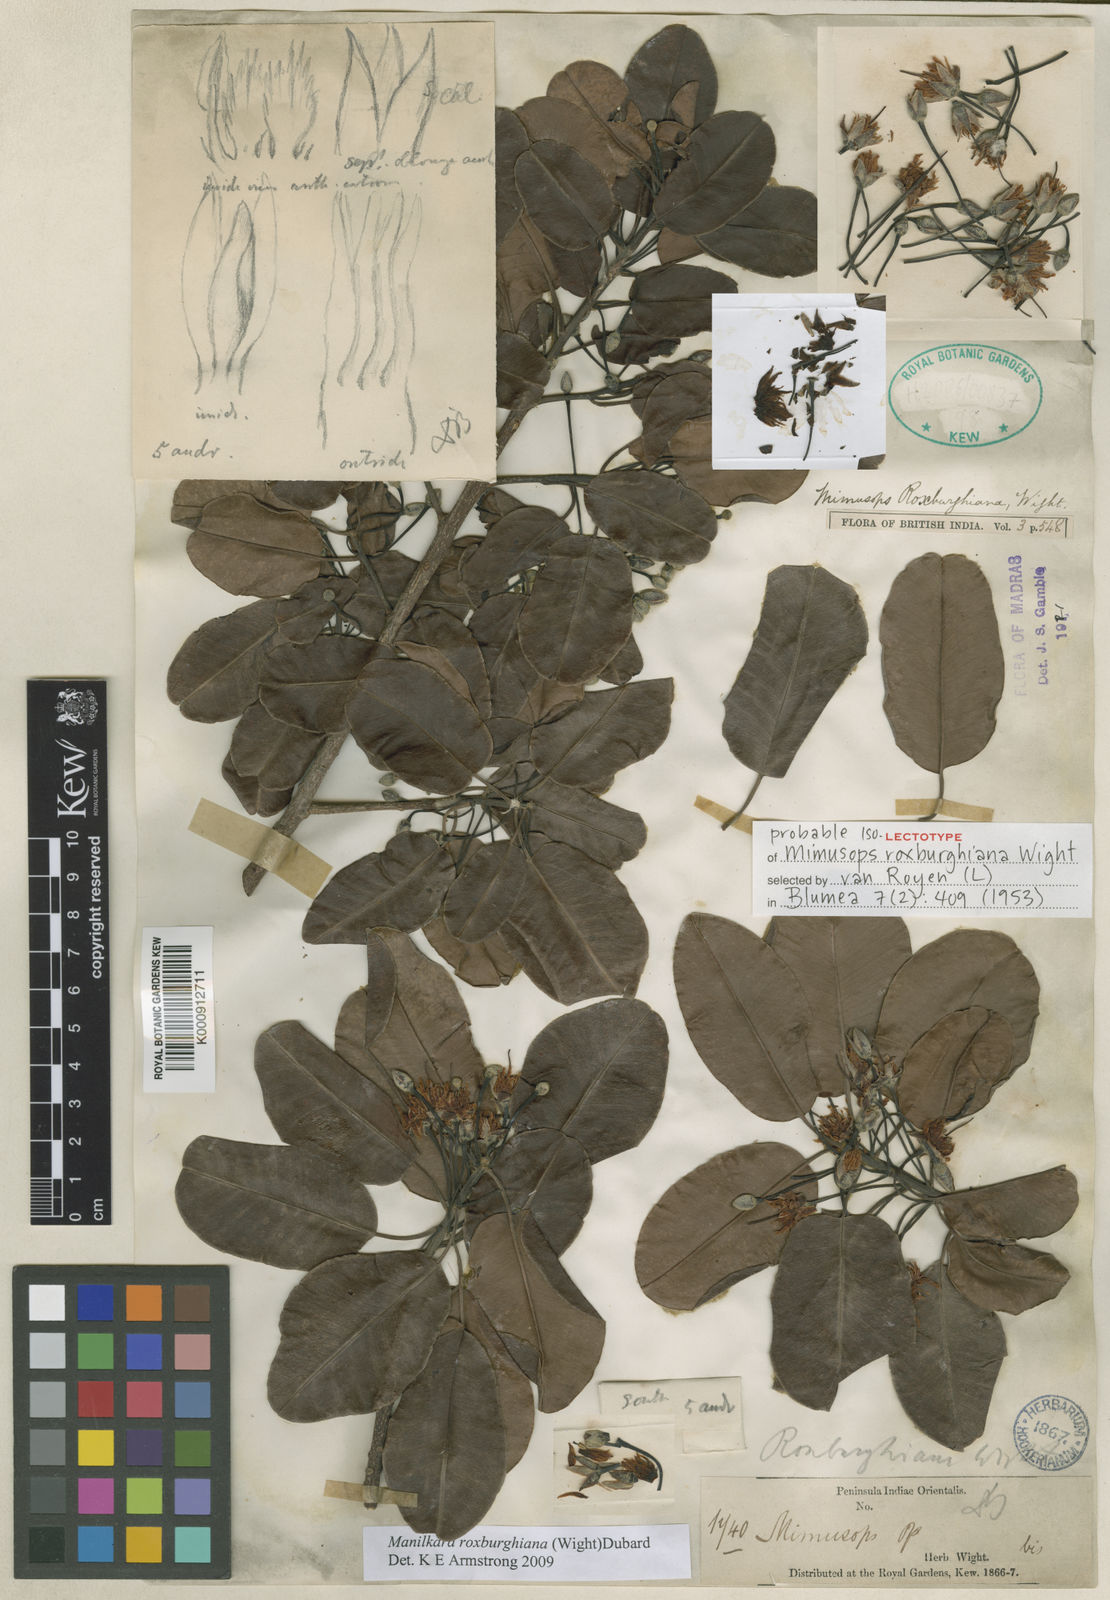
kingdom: Plantae
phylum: Tracheophyta
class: Magnoliopsida
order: Ericales
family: Sapotaceae
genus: Manilkara
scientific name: Manilkara roxburghiana
